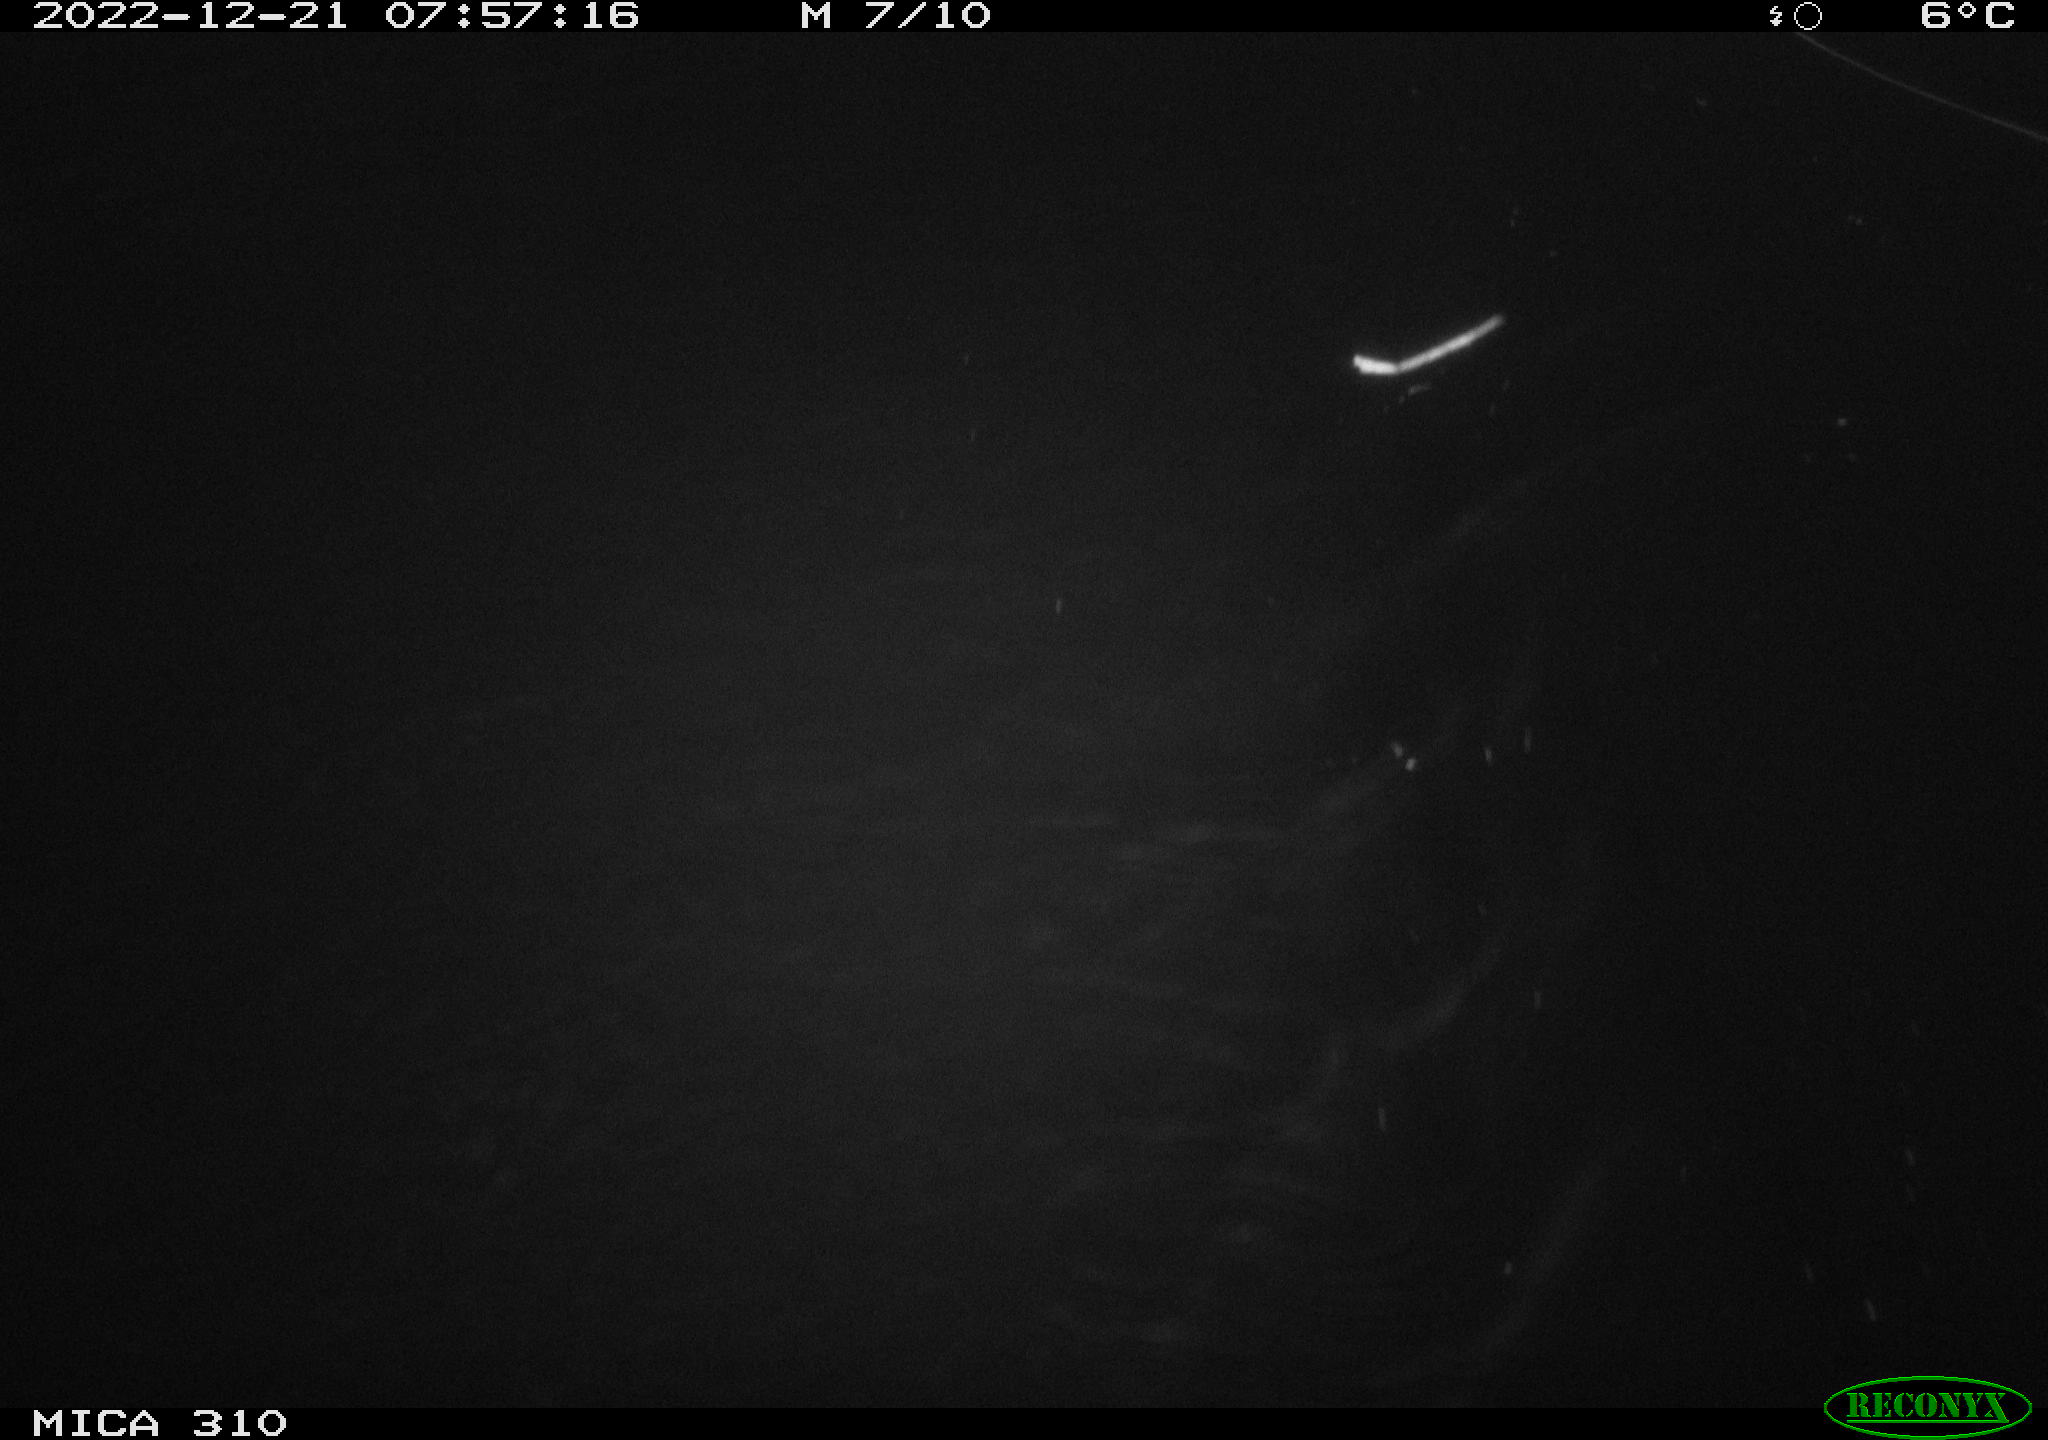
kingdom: Animalia
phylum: Chordata
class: Aves
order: Anseriformes
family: Anatidae
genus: Anas
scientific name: Anas
